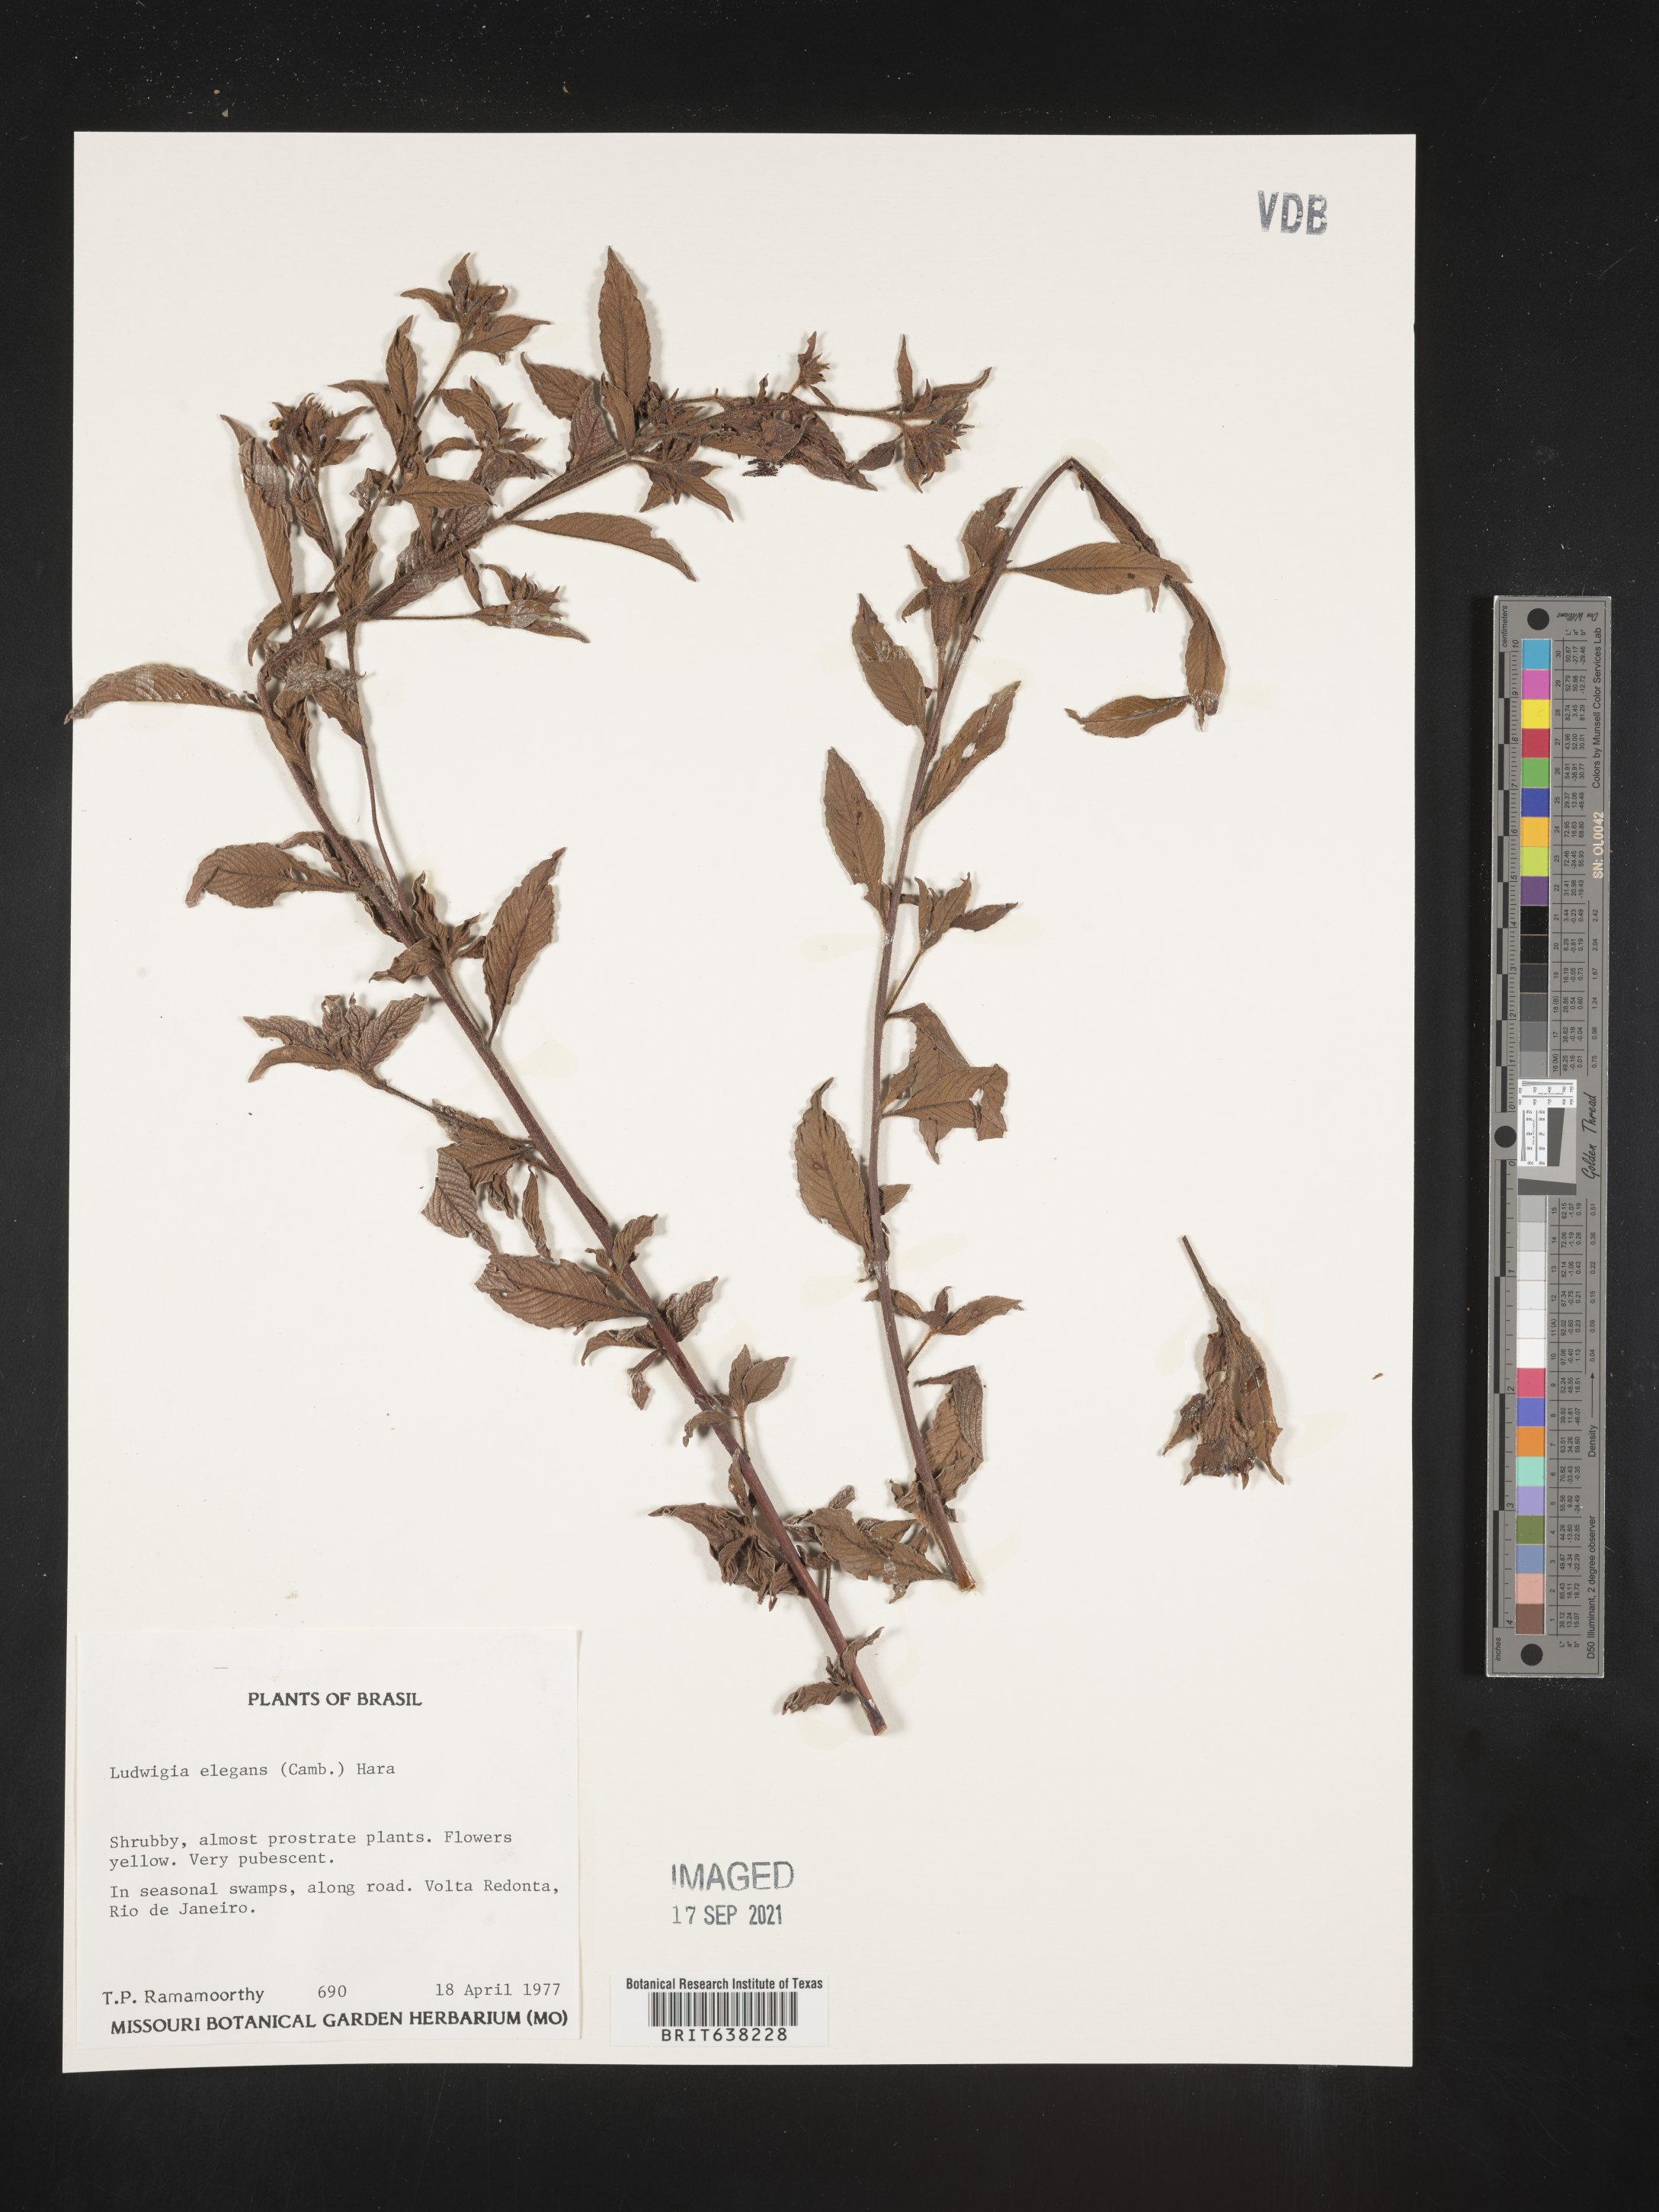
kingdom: Plantae
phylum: Tracheophyta
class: Magnoliopsida
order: Myrtales
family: Onagraceae
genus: Ludwigia
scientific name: Ludwigia
